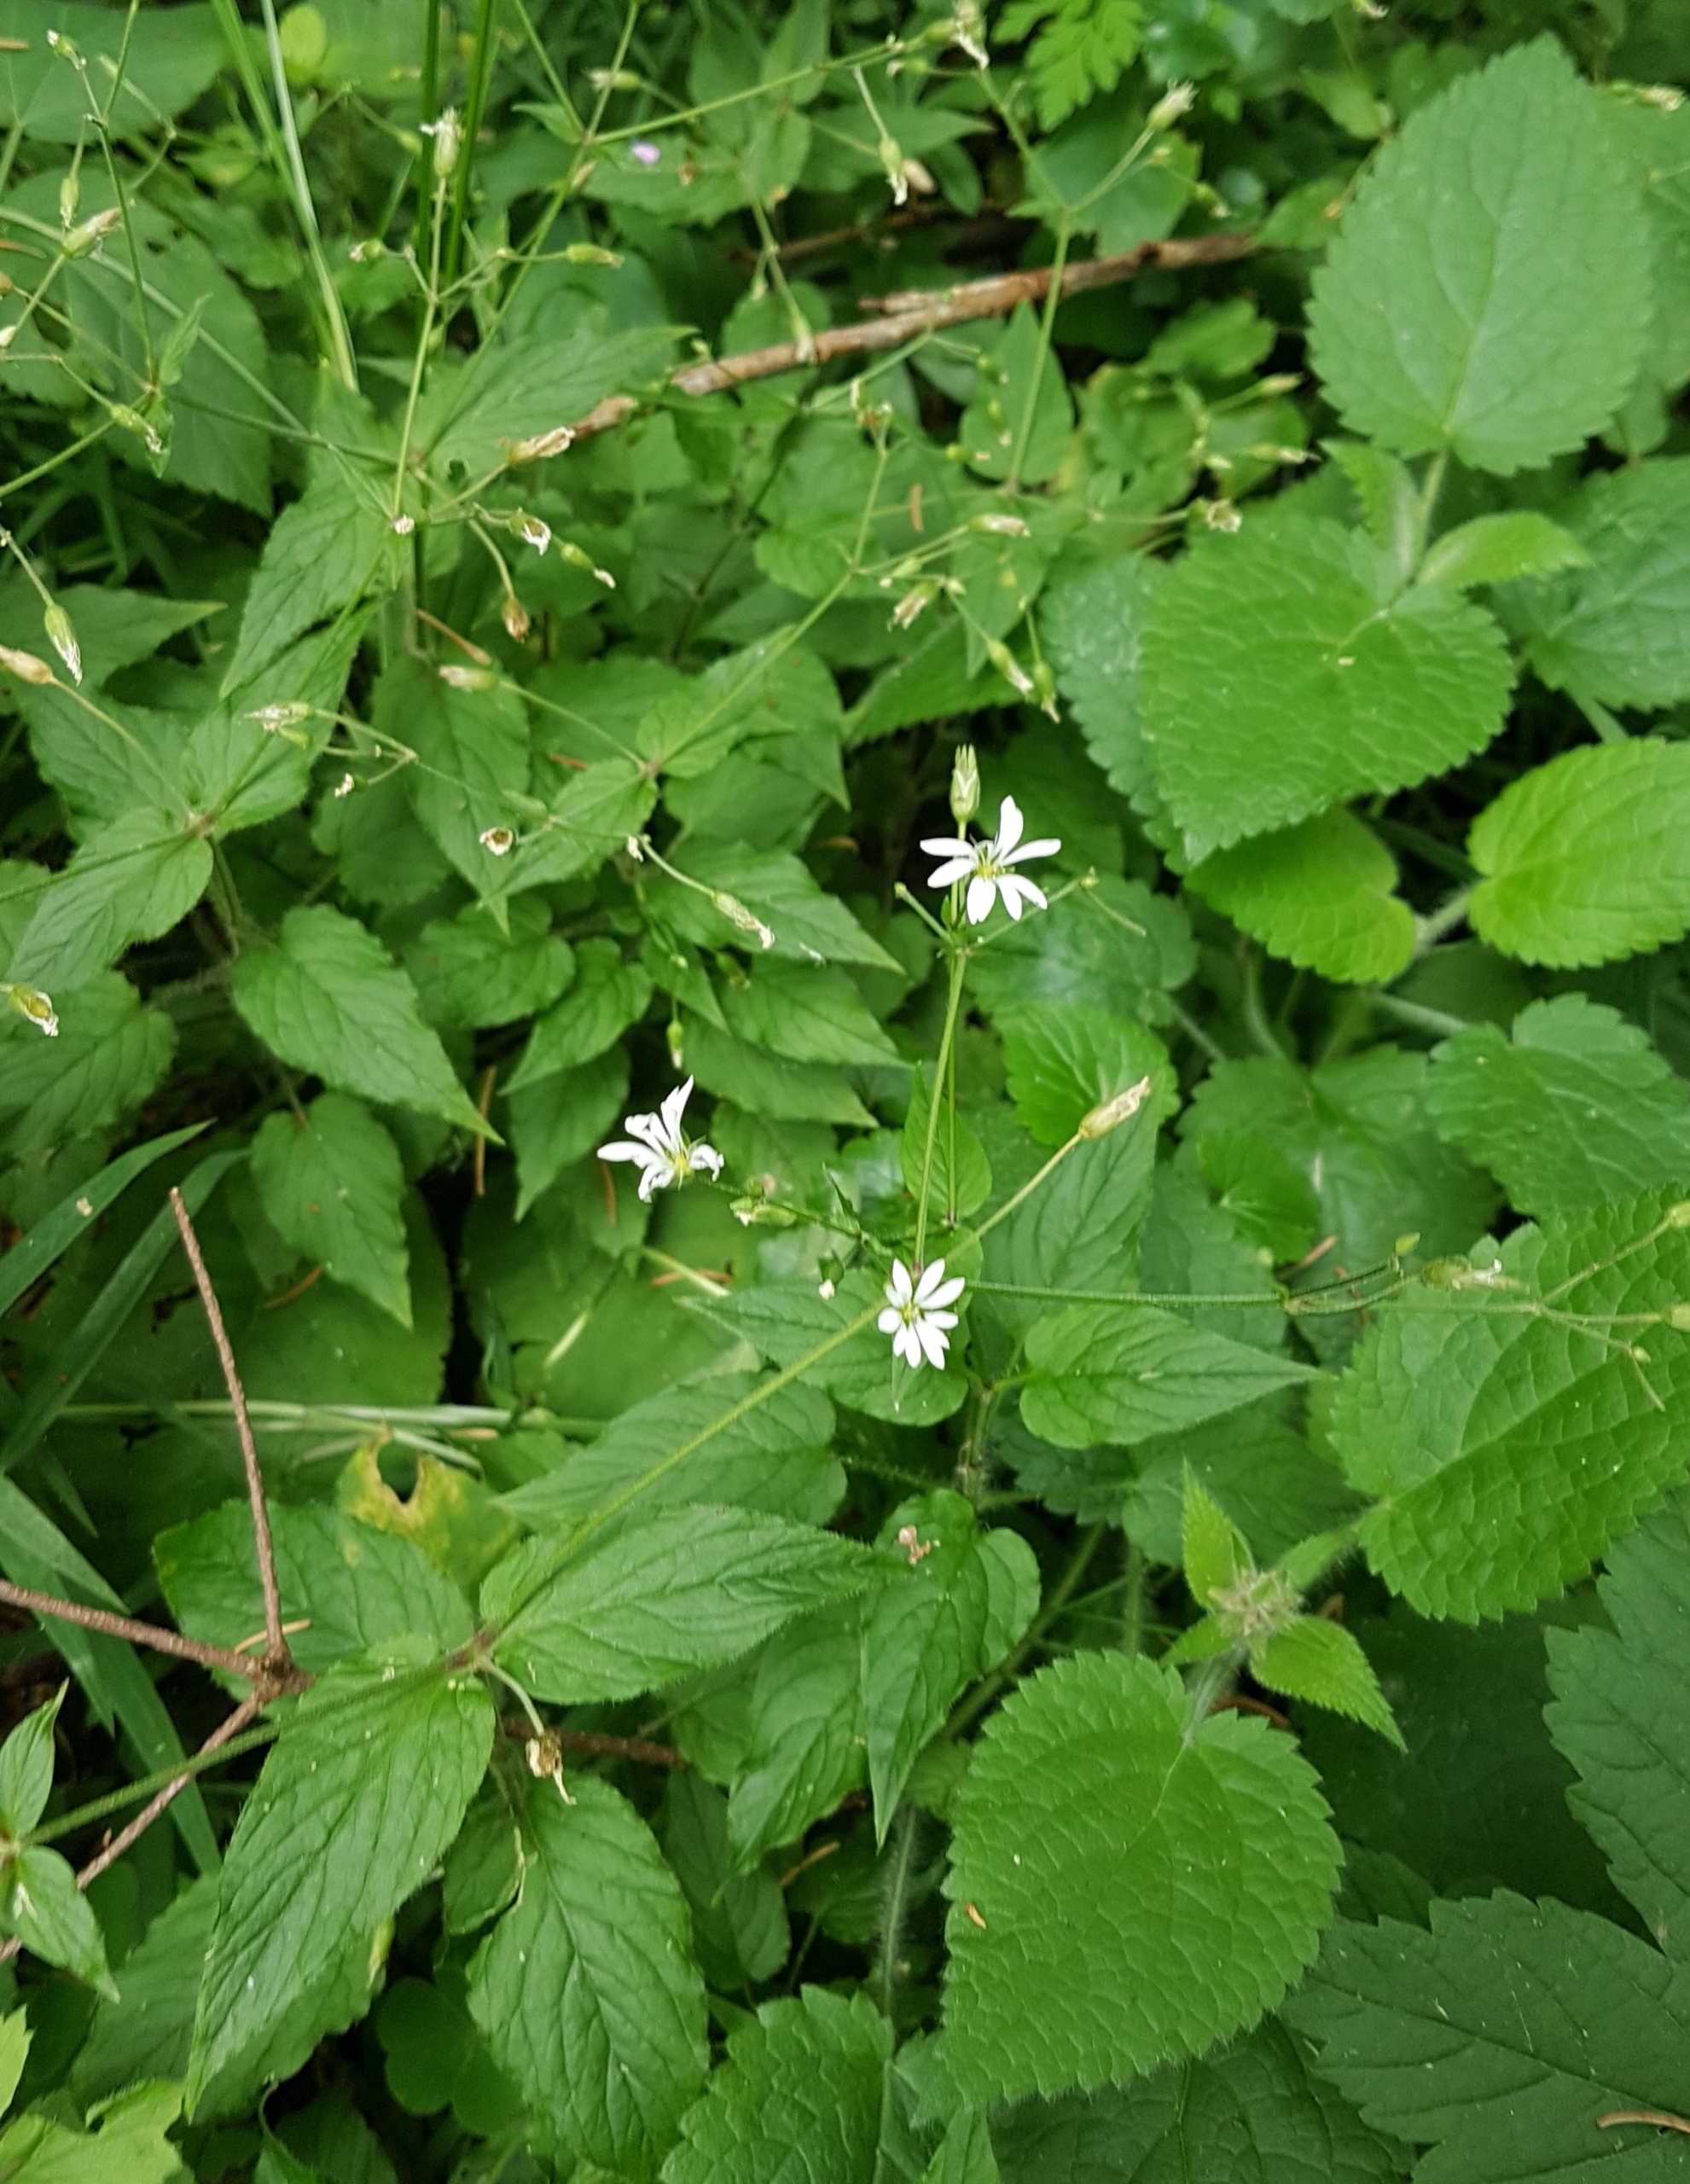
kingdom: Plantae
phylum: Tracheophyta
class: Magnoliopsida
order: Caryophyllales
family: Caryophyllaceae
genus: Stellaria
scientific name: Stellaria glochidisperma
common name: Sydlig lund-fladstjerne
